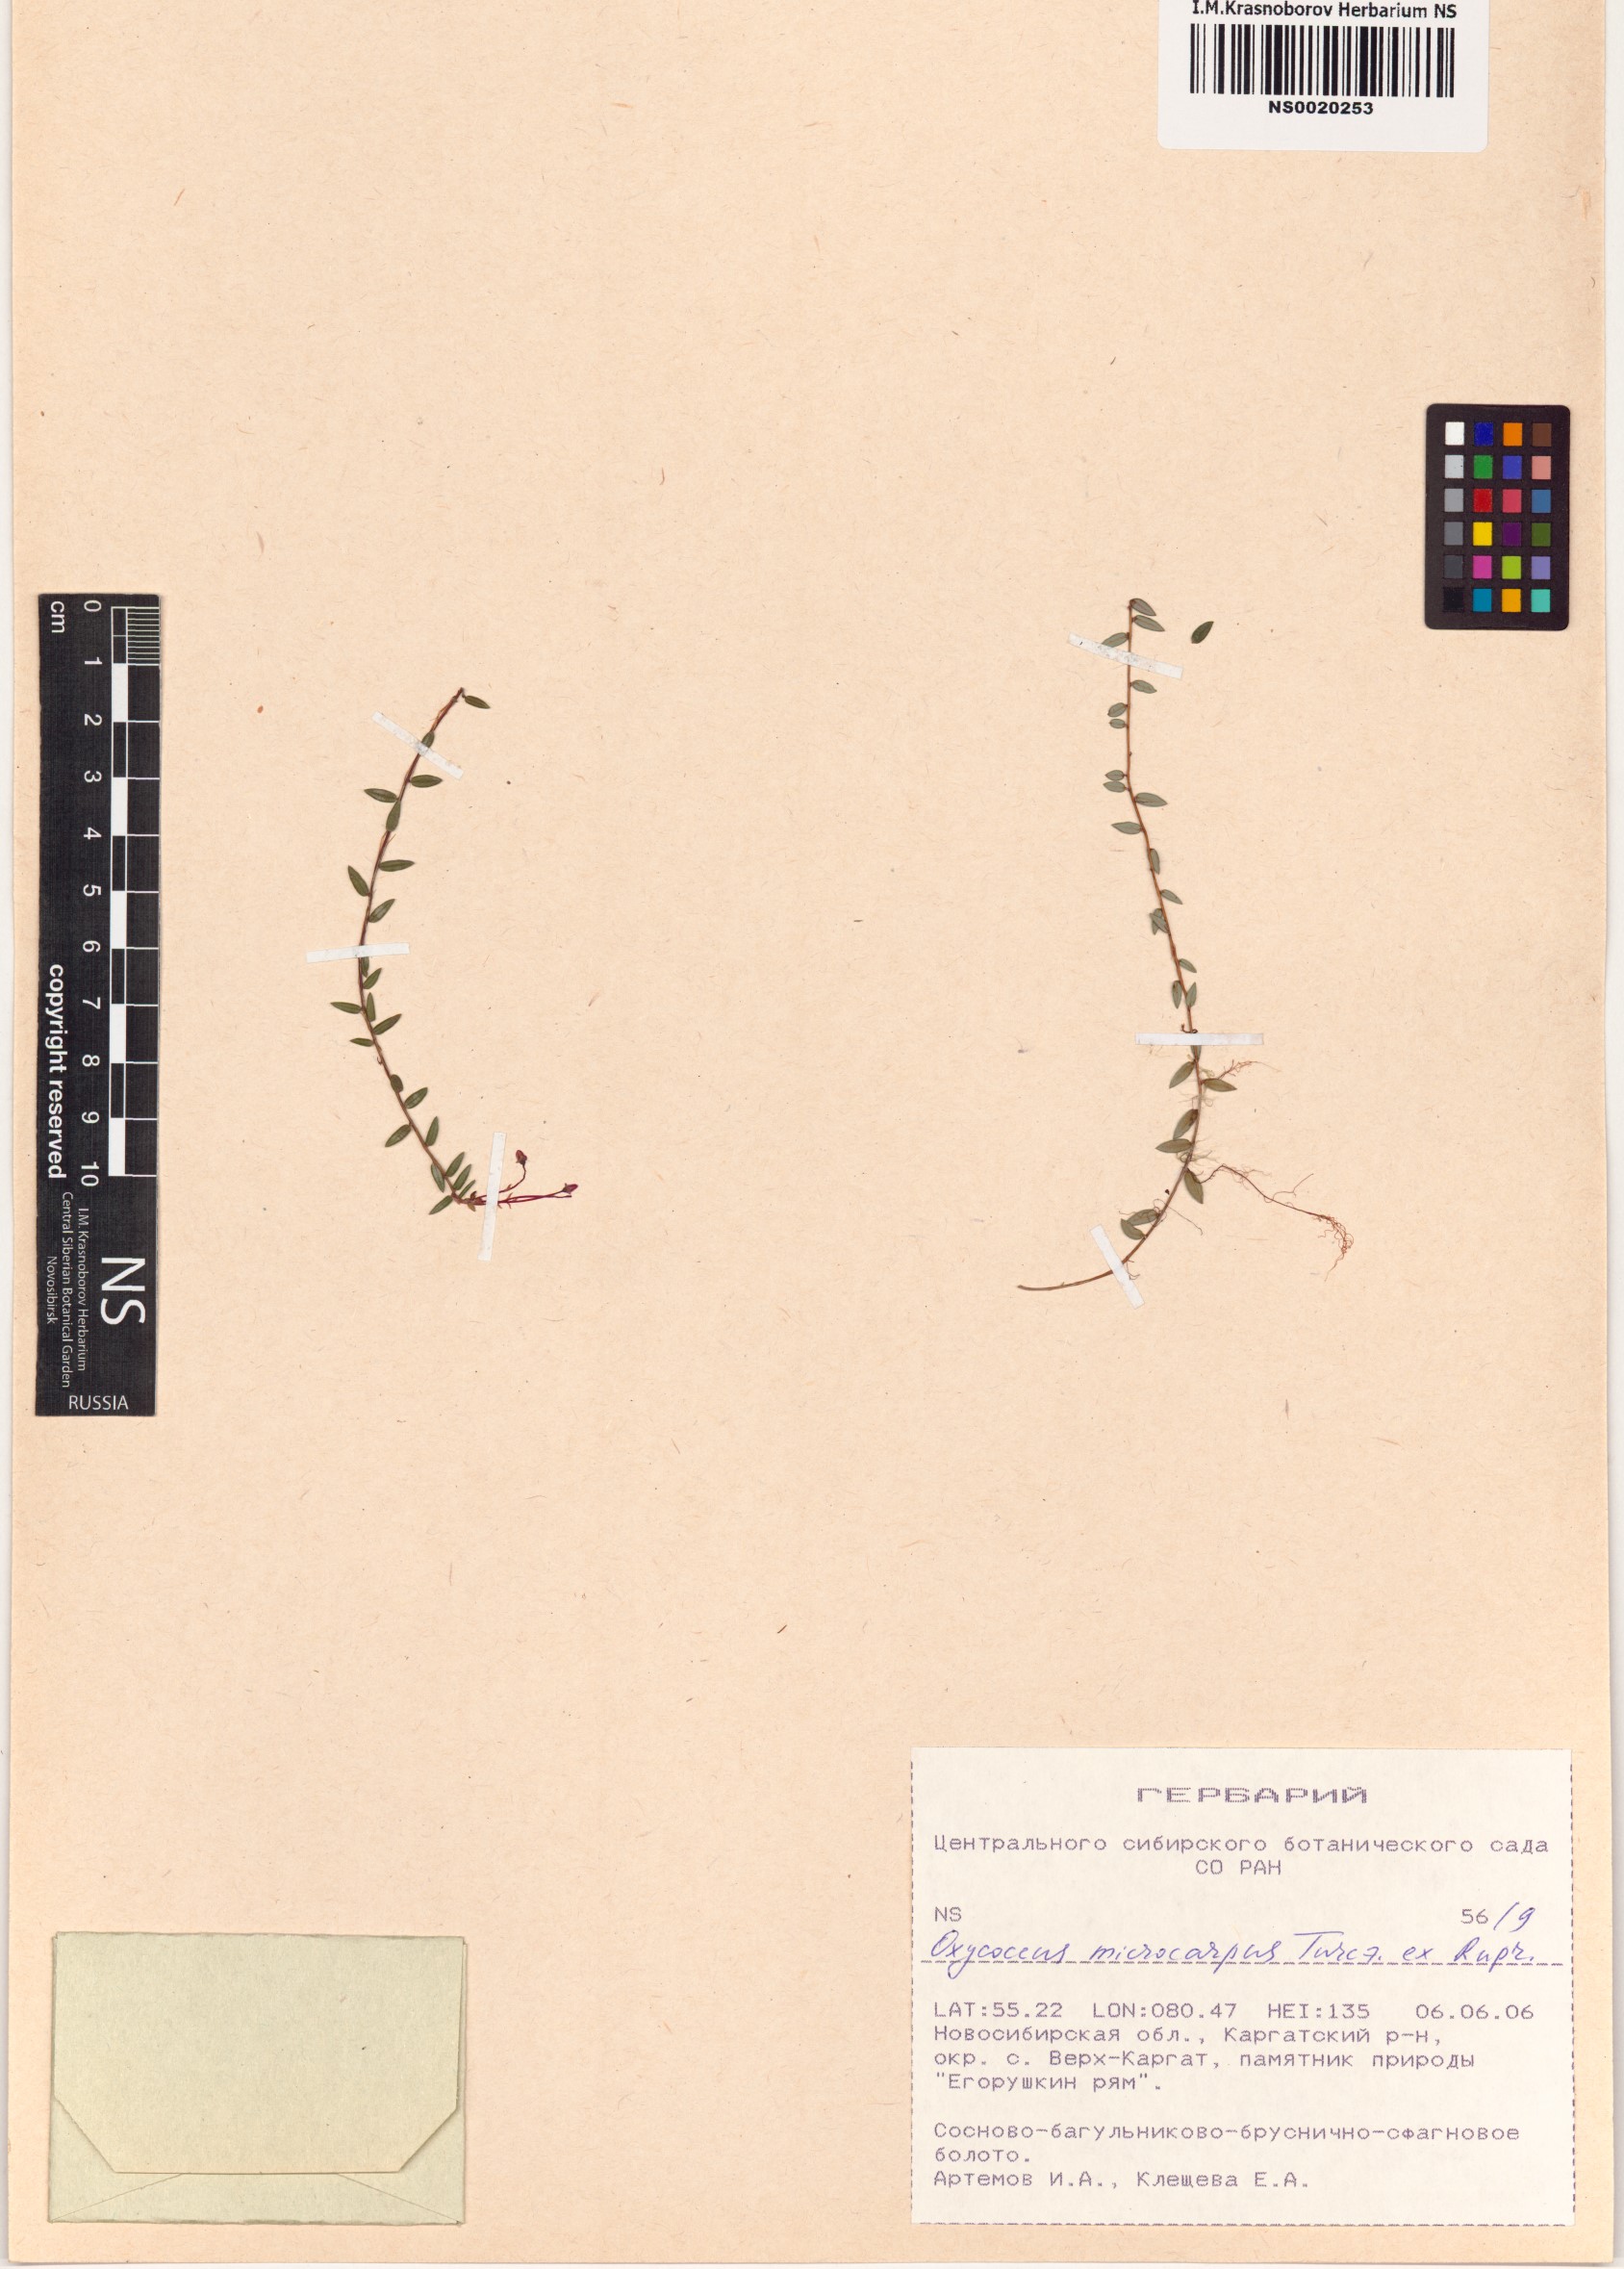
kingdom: Plantae
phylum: Tracheophyta
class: Magnoliopsida
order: Ericales
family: Ericaceae
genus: Vaccinium
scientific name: Vaccinium microcarpum
